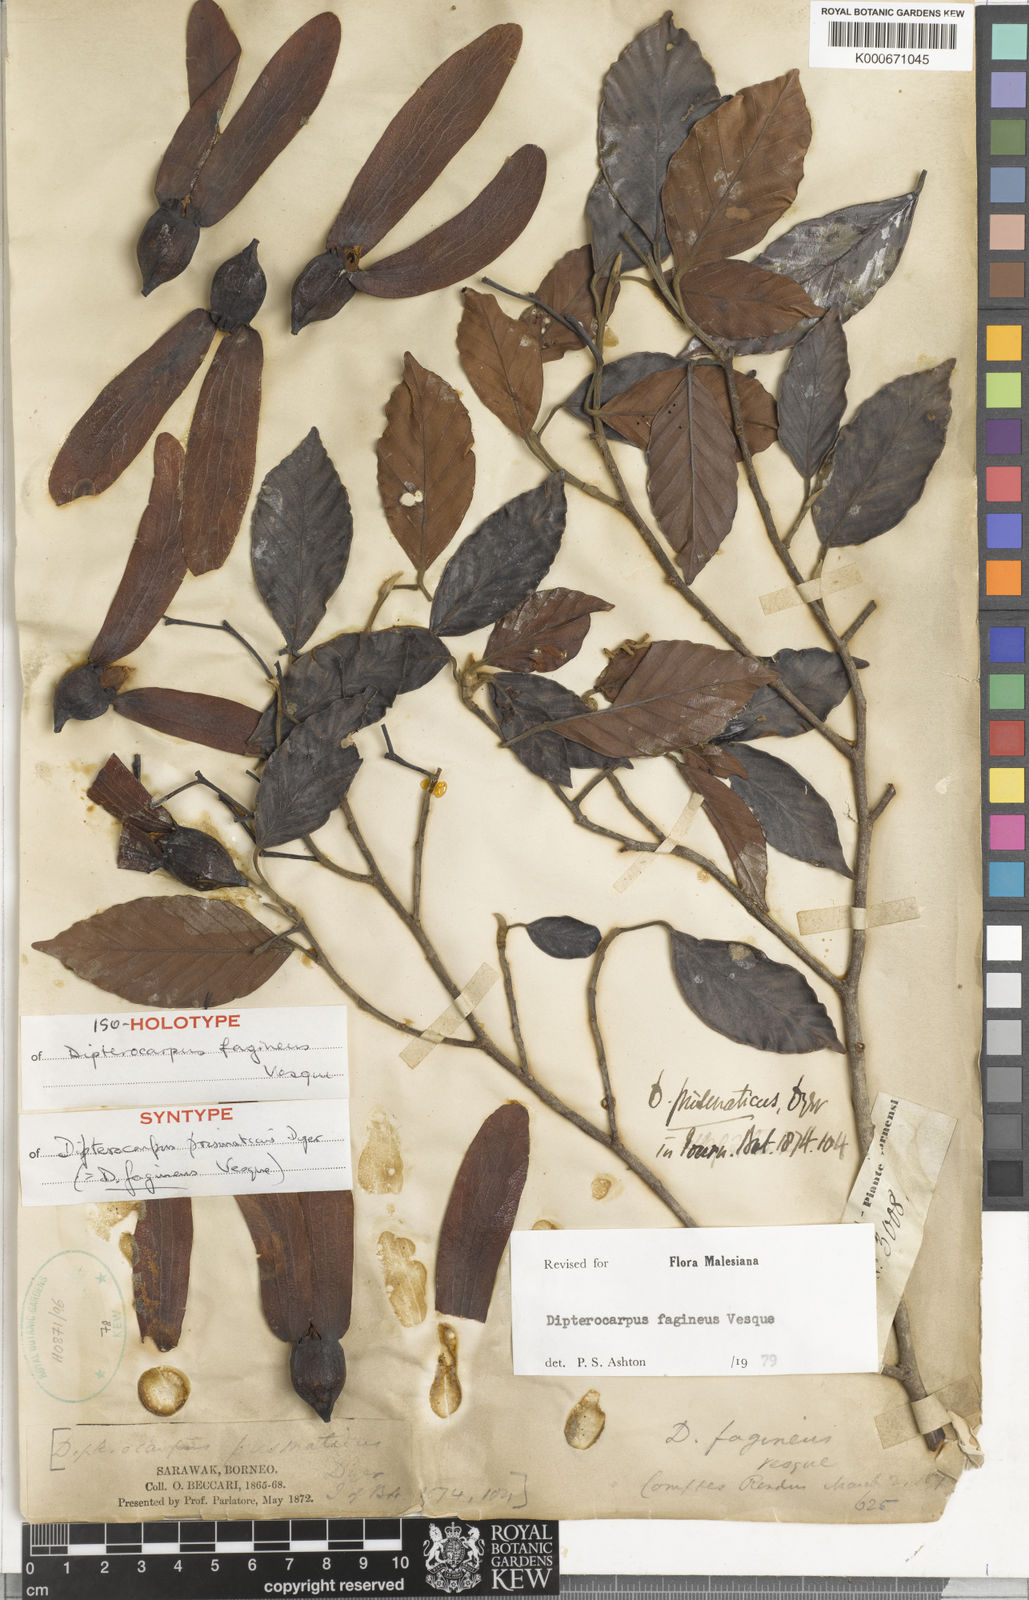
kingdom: Plantae
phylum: Tracheophyta
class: Magnoliopsida
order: Malvales
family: Dipterocarpaceae
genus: Dipterocarpus
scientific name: Dipterocarpus fagineus
